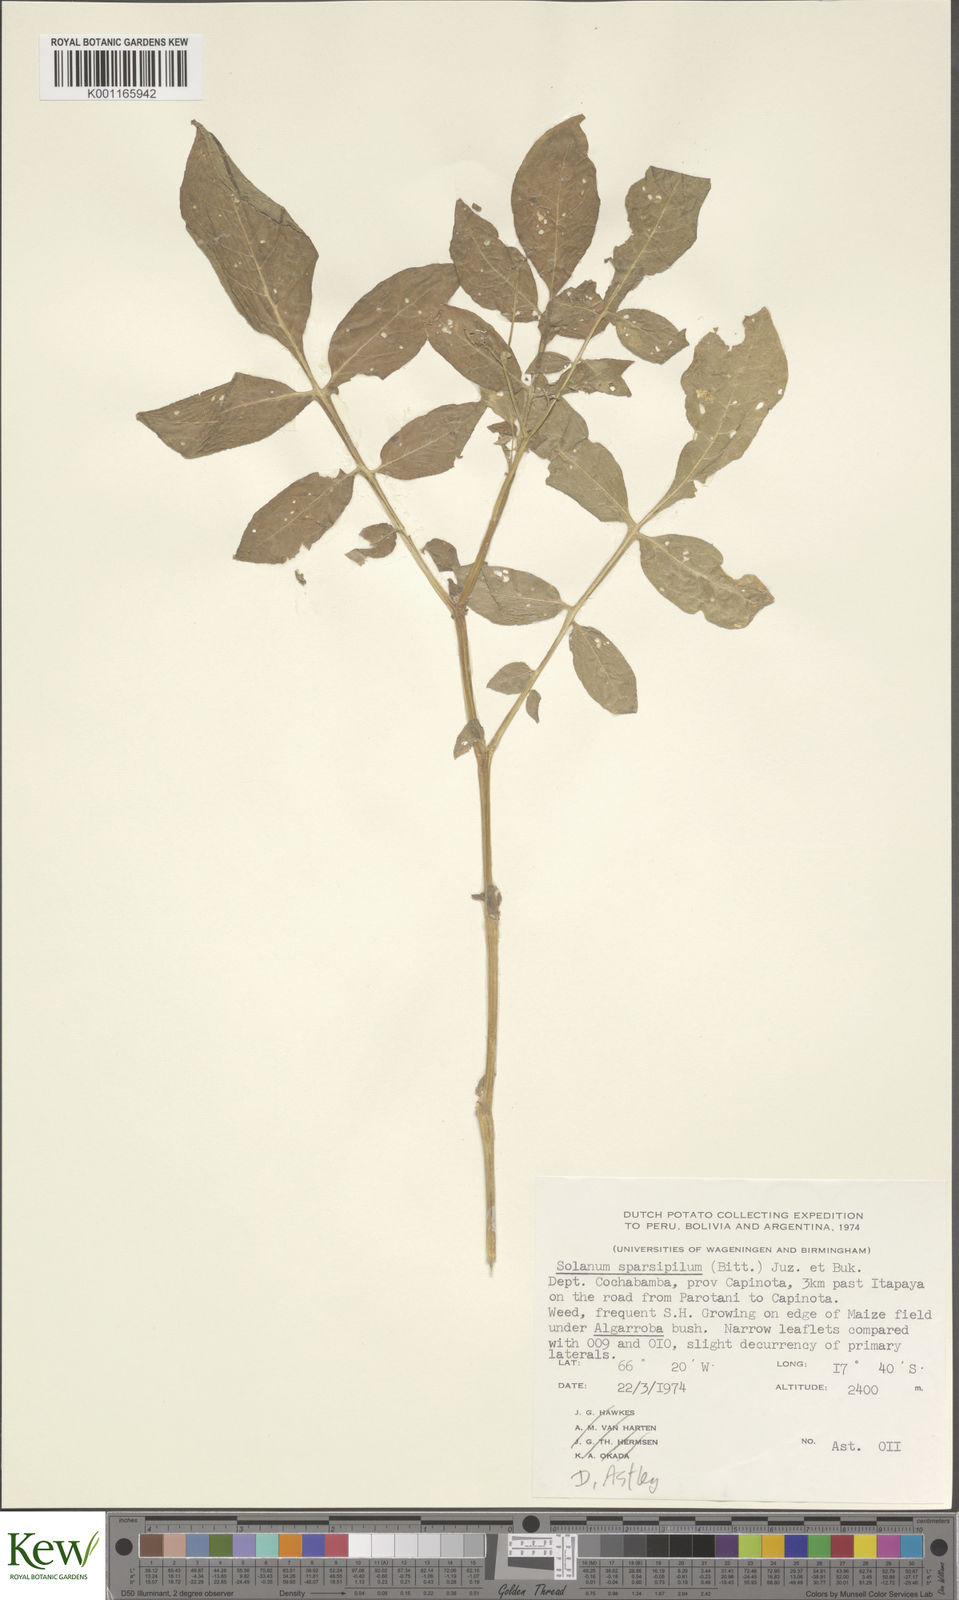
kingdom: Plantae
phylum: Tracheophyta
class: Magnoliopsida
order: Solanales
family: Solanaceae
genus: Solanum
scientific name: Solanum brevicaule
